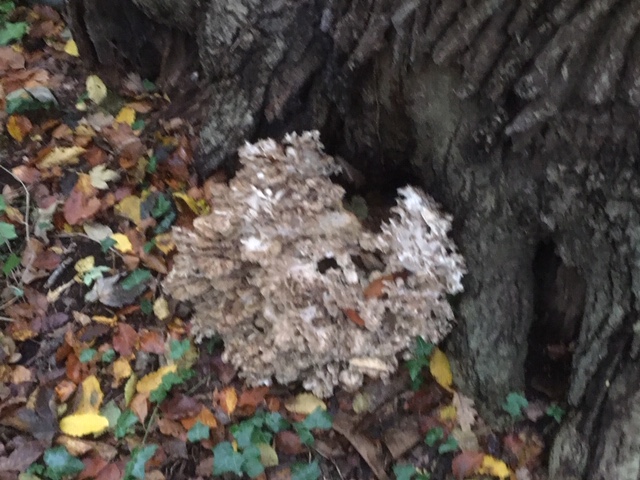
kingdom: Fungi
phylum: Basidiomycota
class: Agaricomycetes
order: Polyporales
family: Grifolaceae
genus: Grifola
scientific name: Grifola frondosa
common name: tueporesvamp
